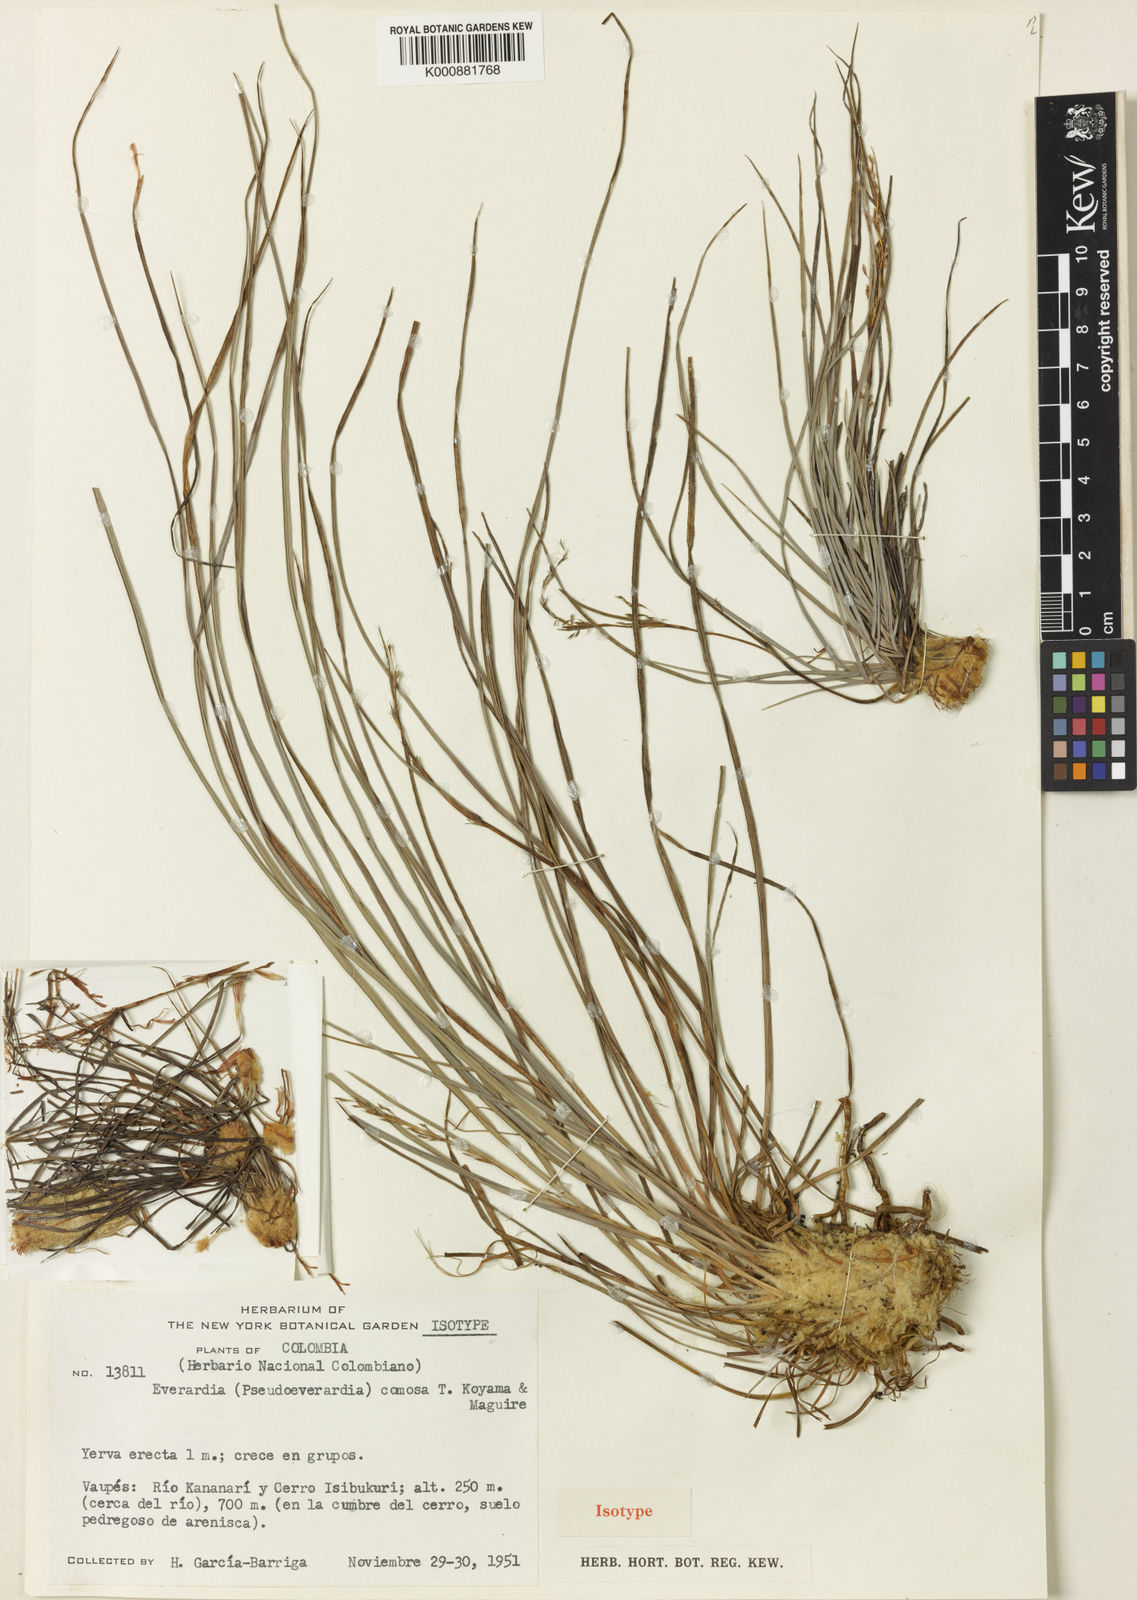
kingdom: Plantae
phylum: Tracheophyta
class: Liliopsida
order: Poales
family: Cyperaceae
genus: Everardia
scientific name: Everardia
